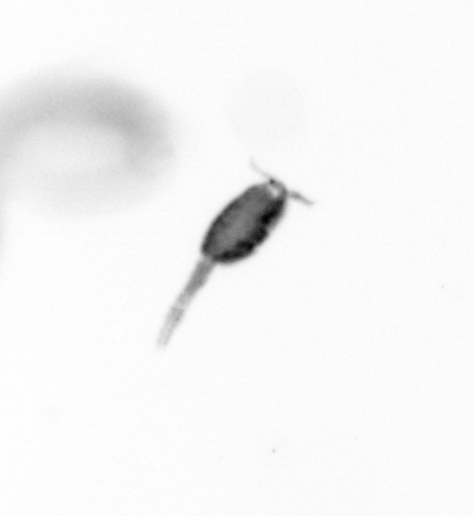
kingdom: Animalia
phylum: Arthropoda
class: Copepoda
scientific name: Copepoda
